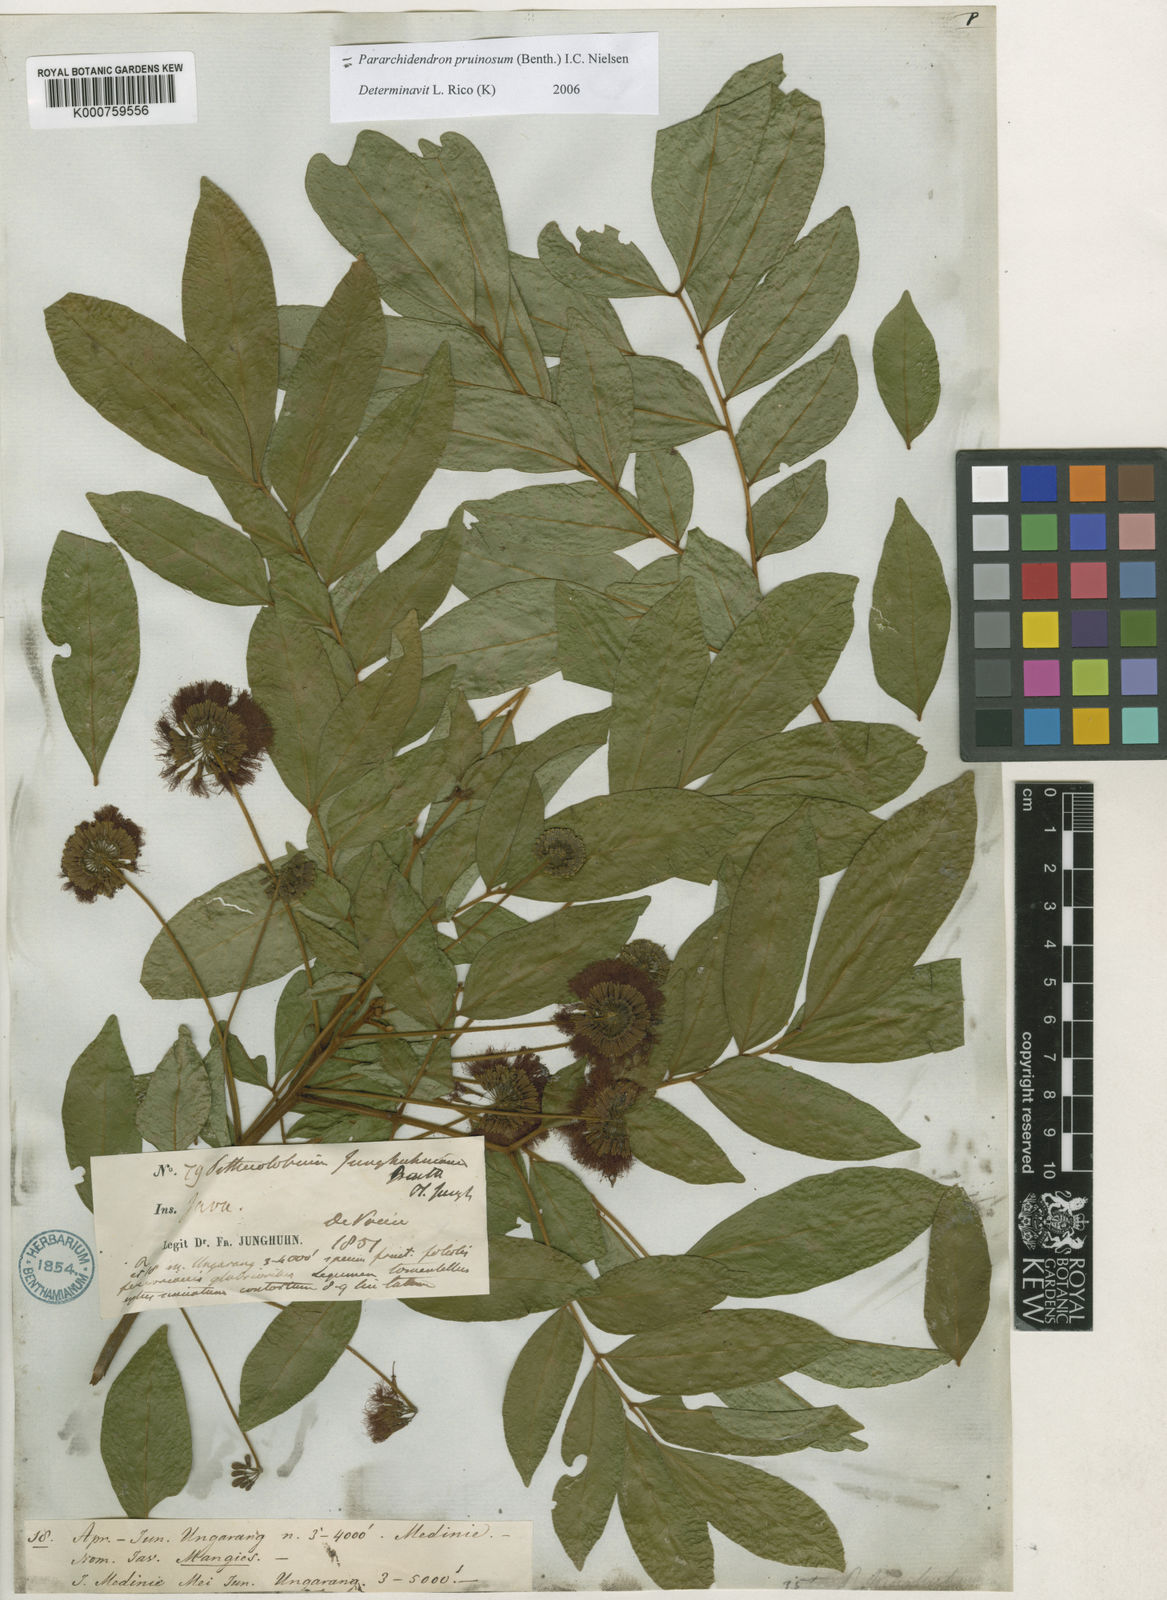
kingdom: Plantae
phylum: Tracheophyta
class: Magnoliopsida
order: Fabales
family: Fabaceae
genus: Pararchidendron
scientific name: Pararchidendron pruinosum
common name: Tulip siris
